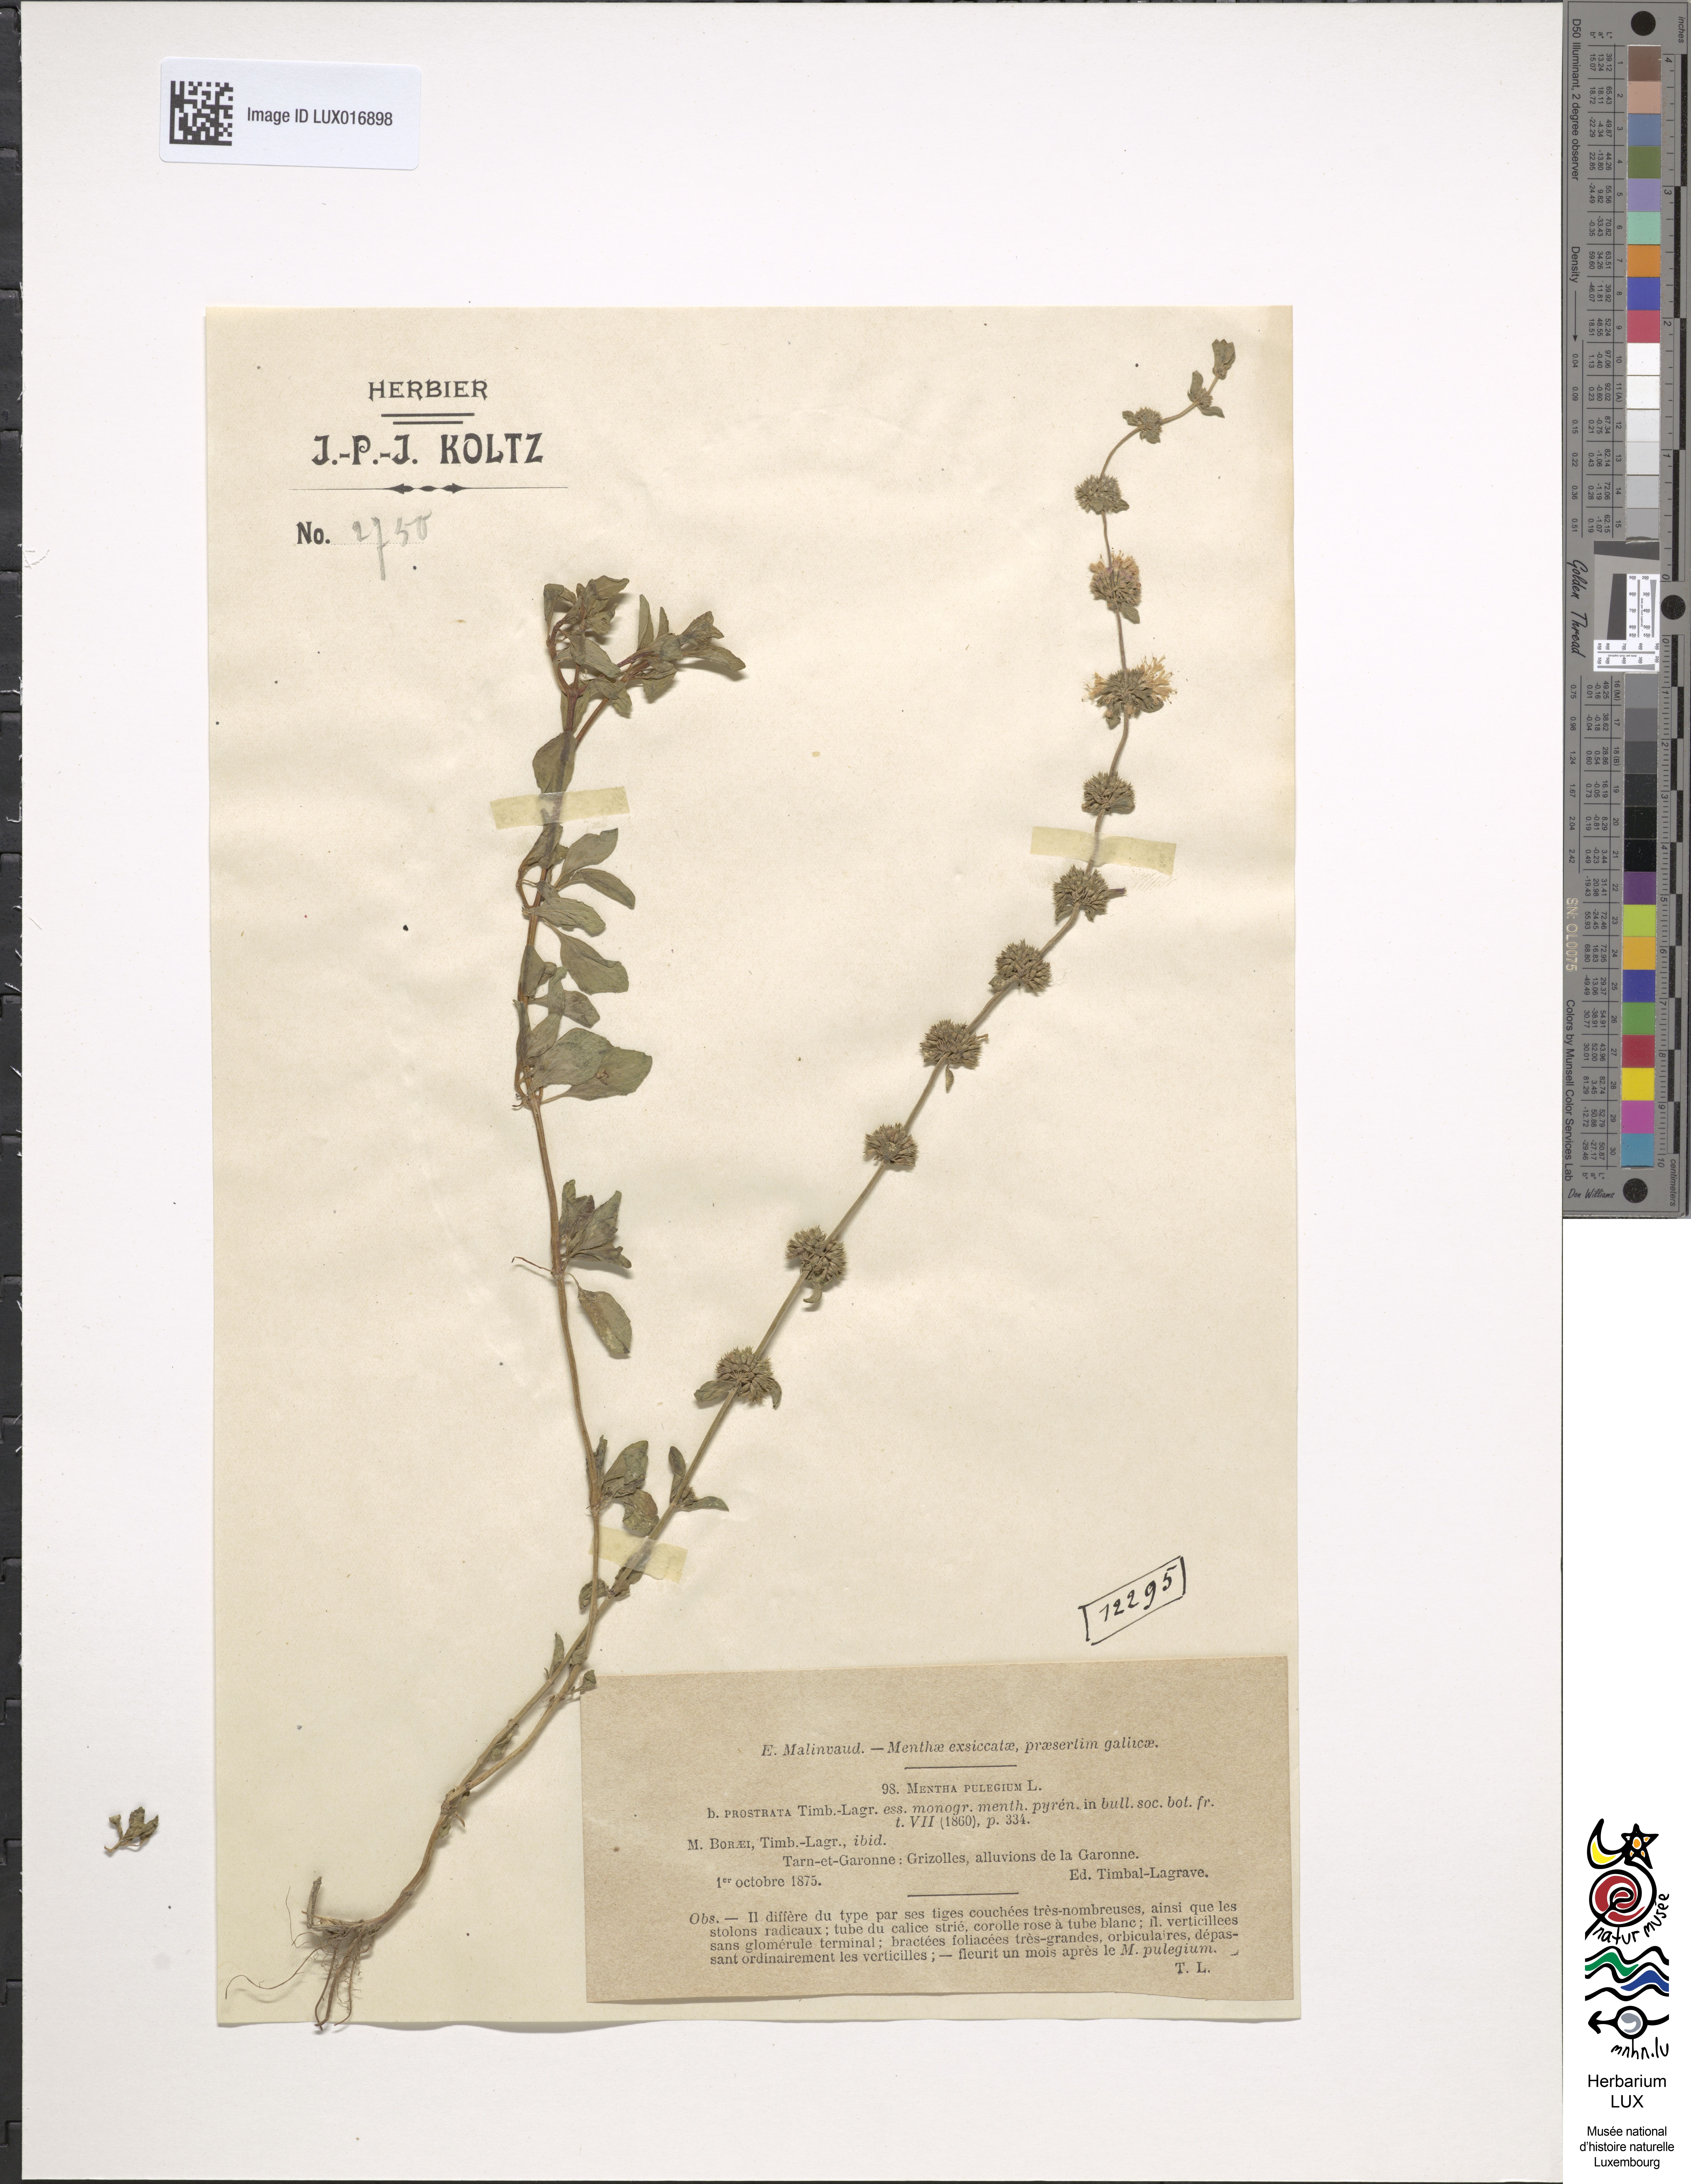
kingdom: Plantae
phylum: Tracheophyta
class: Magnoliopsida
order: Lamiales
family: Lamiaceae
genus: Mentha
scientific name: Mentha pulegium
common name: Pennyroyal
